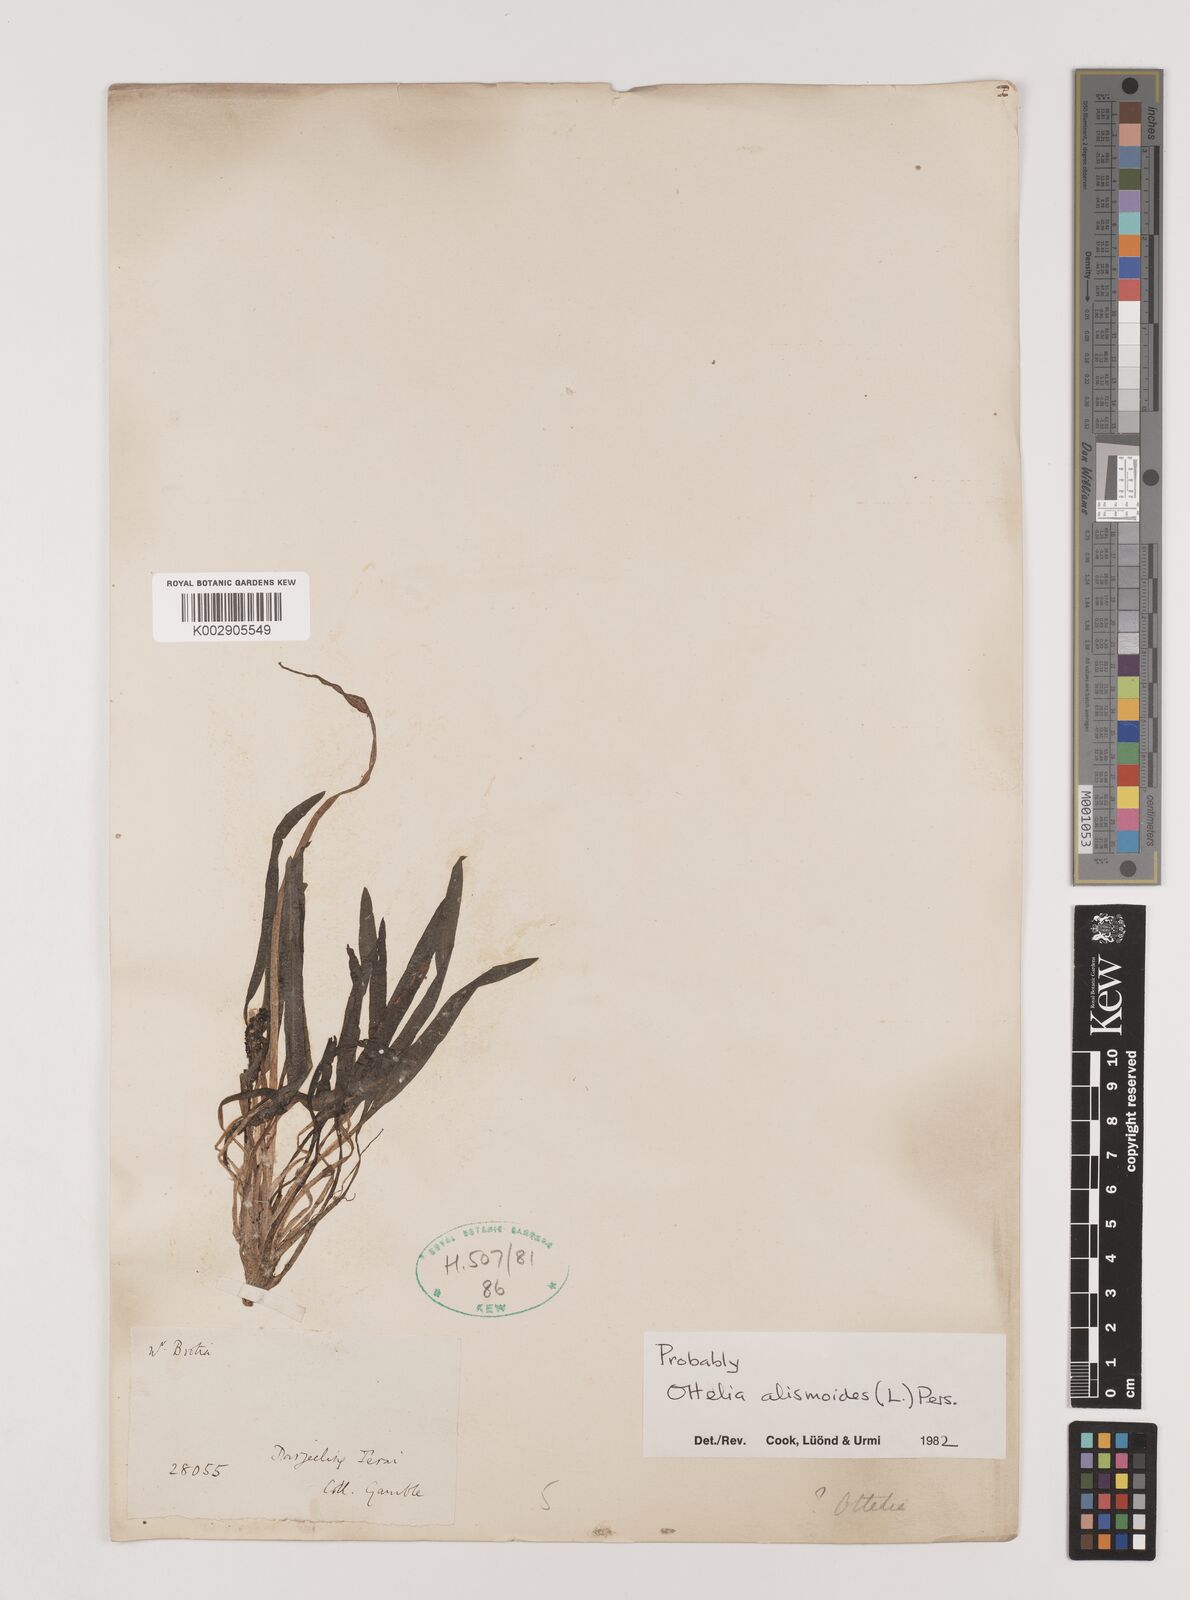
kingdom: Plantae
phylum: Tracheophyta
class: Liliopsida
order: Alismatales
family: Hydrocharitaceae
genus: Ottelia
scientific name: Ottelia alismoides
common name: Duck-lettuce
